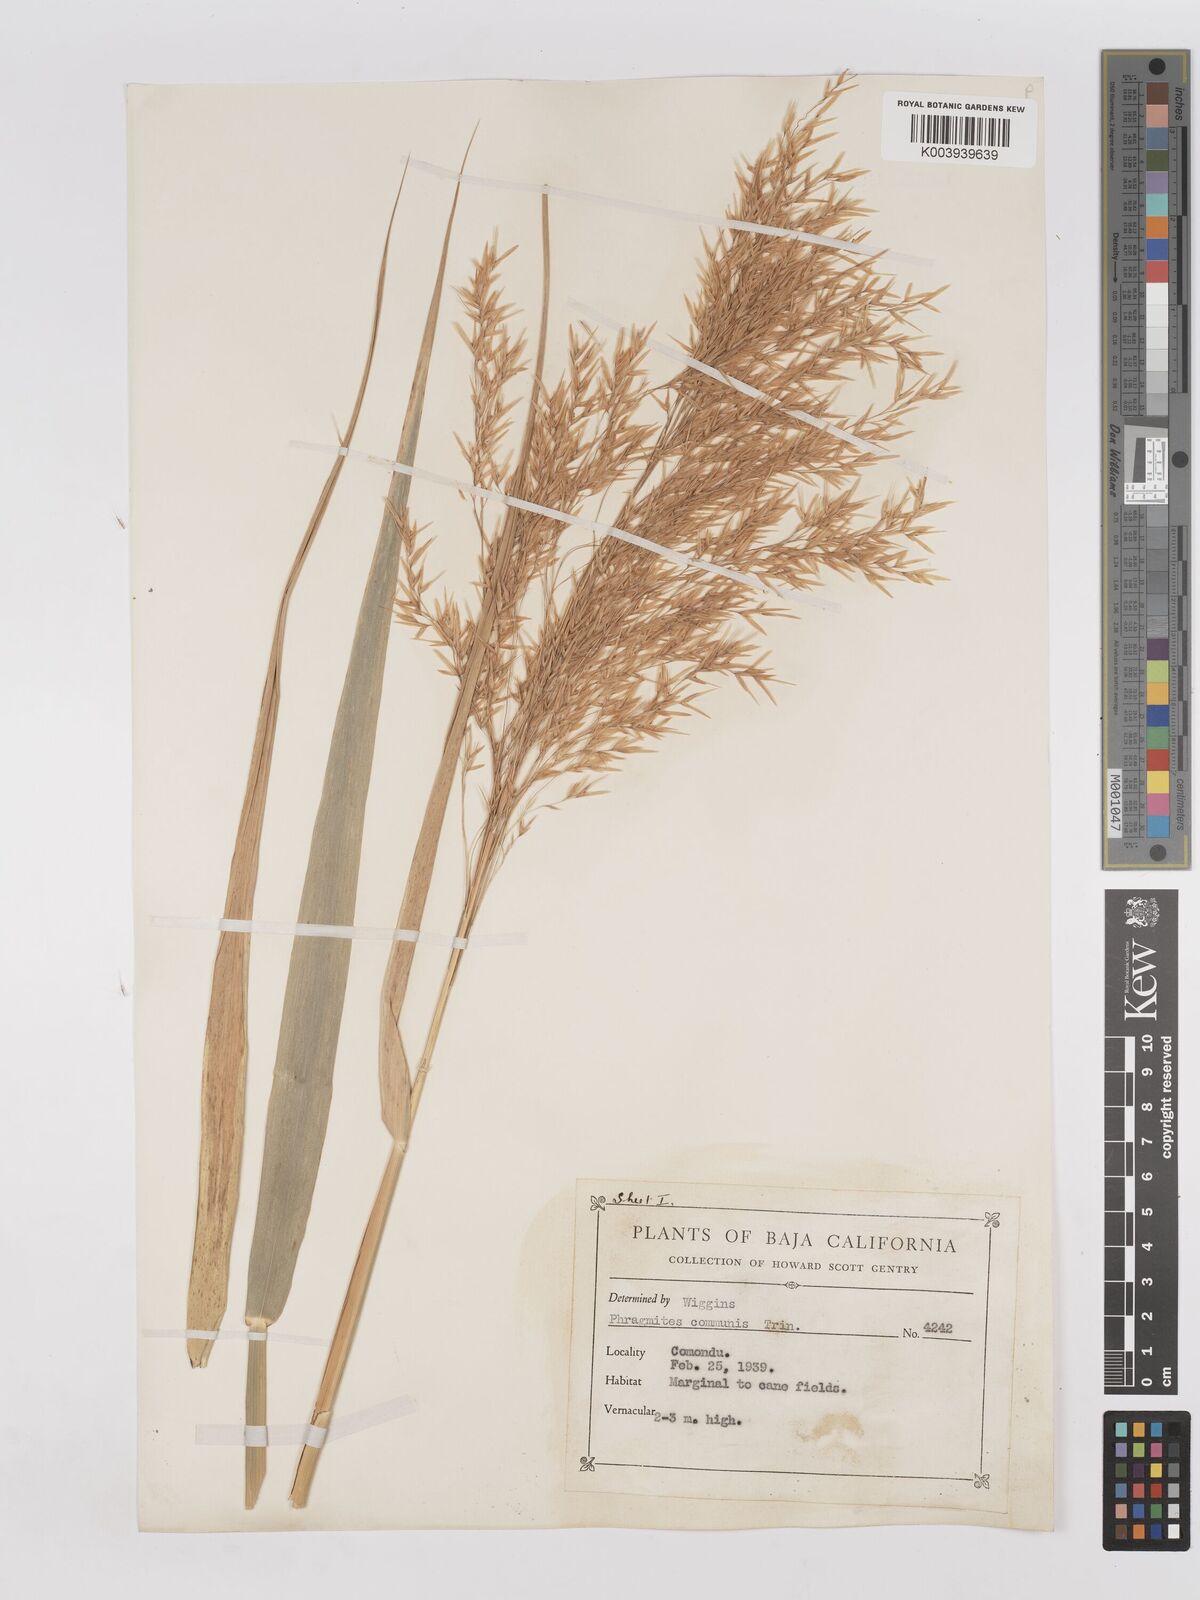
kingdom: Plantae
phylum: Tracheophyta
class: Liliopsida
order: Poales
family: Poaceae
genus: Phragmites
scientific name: Phragmites australis
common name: Common reed
